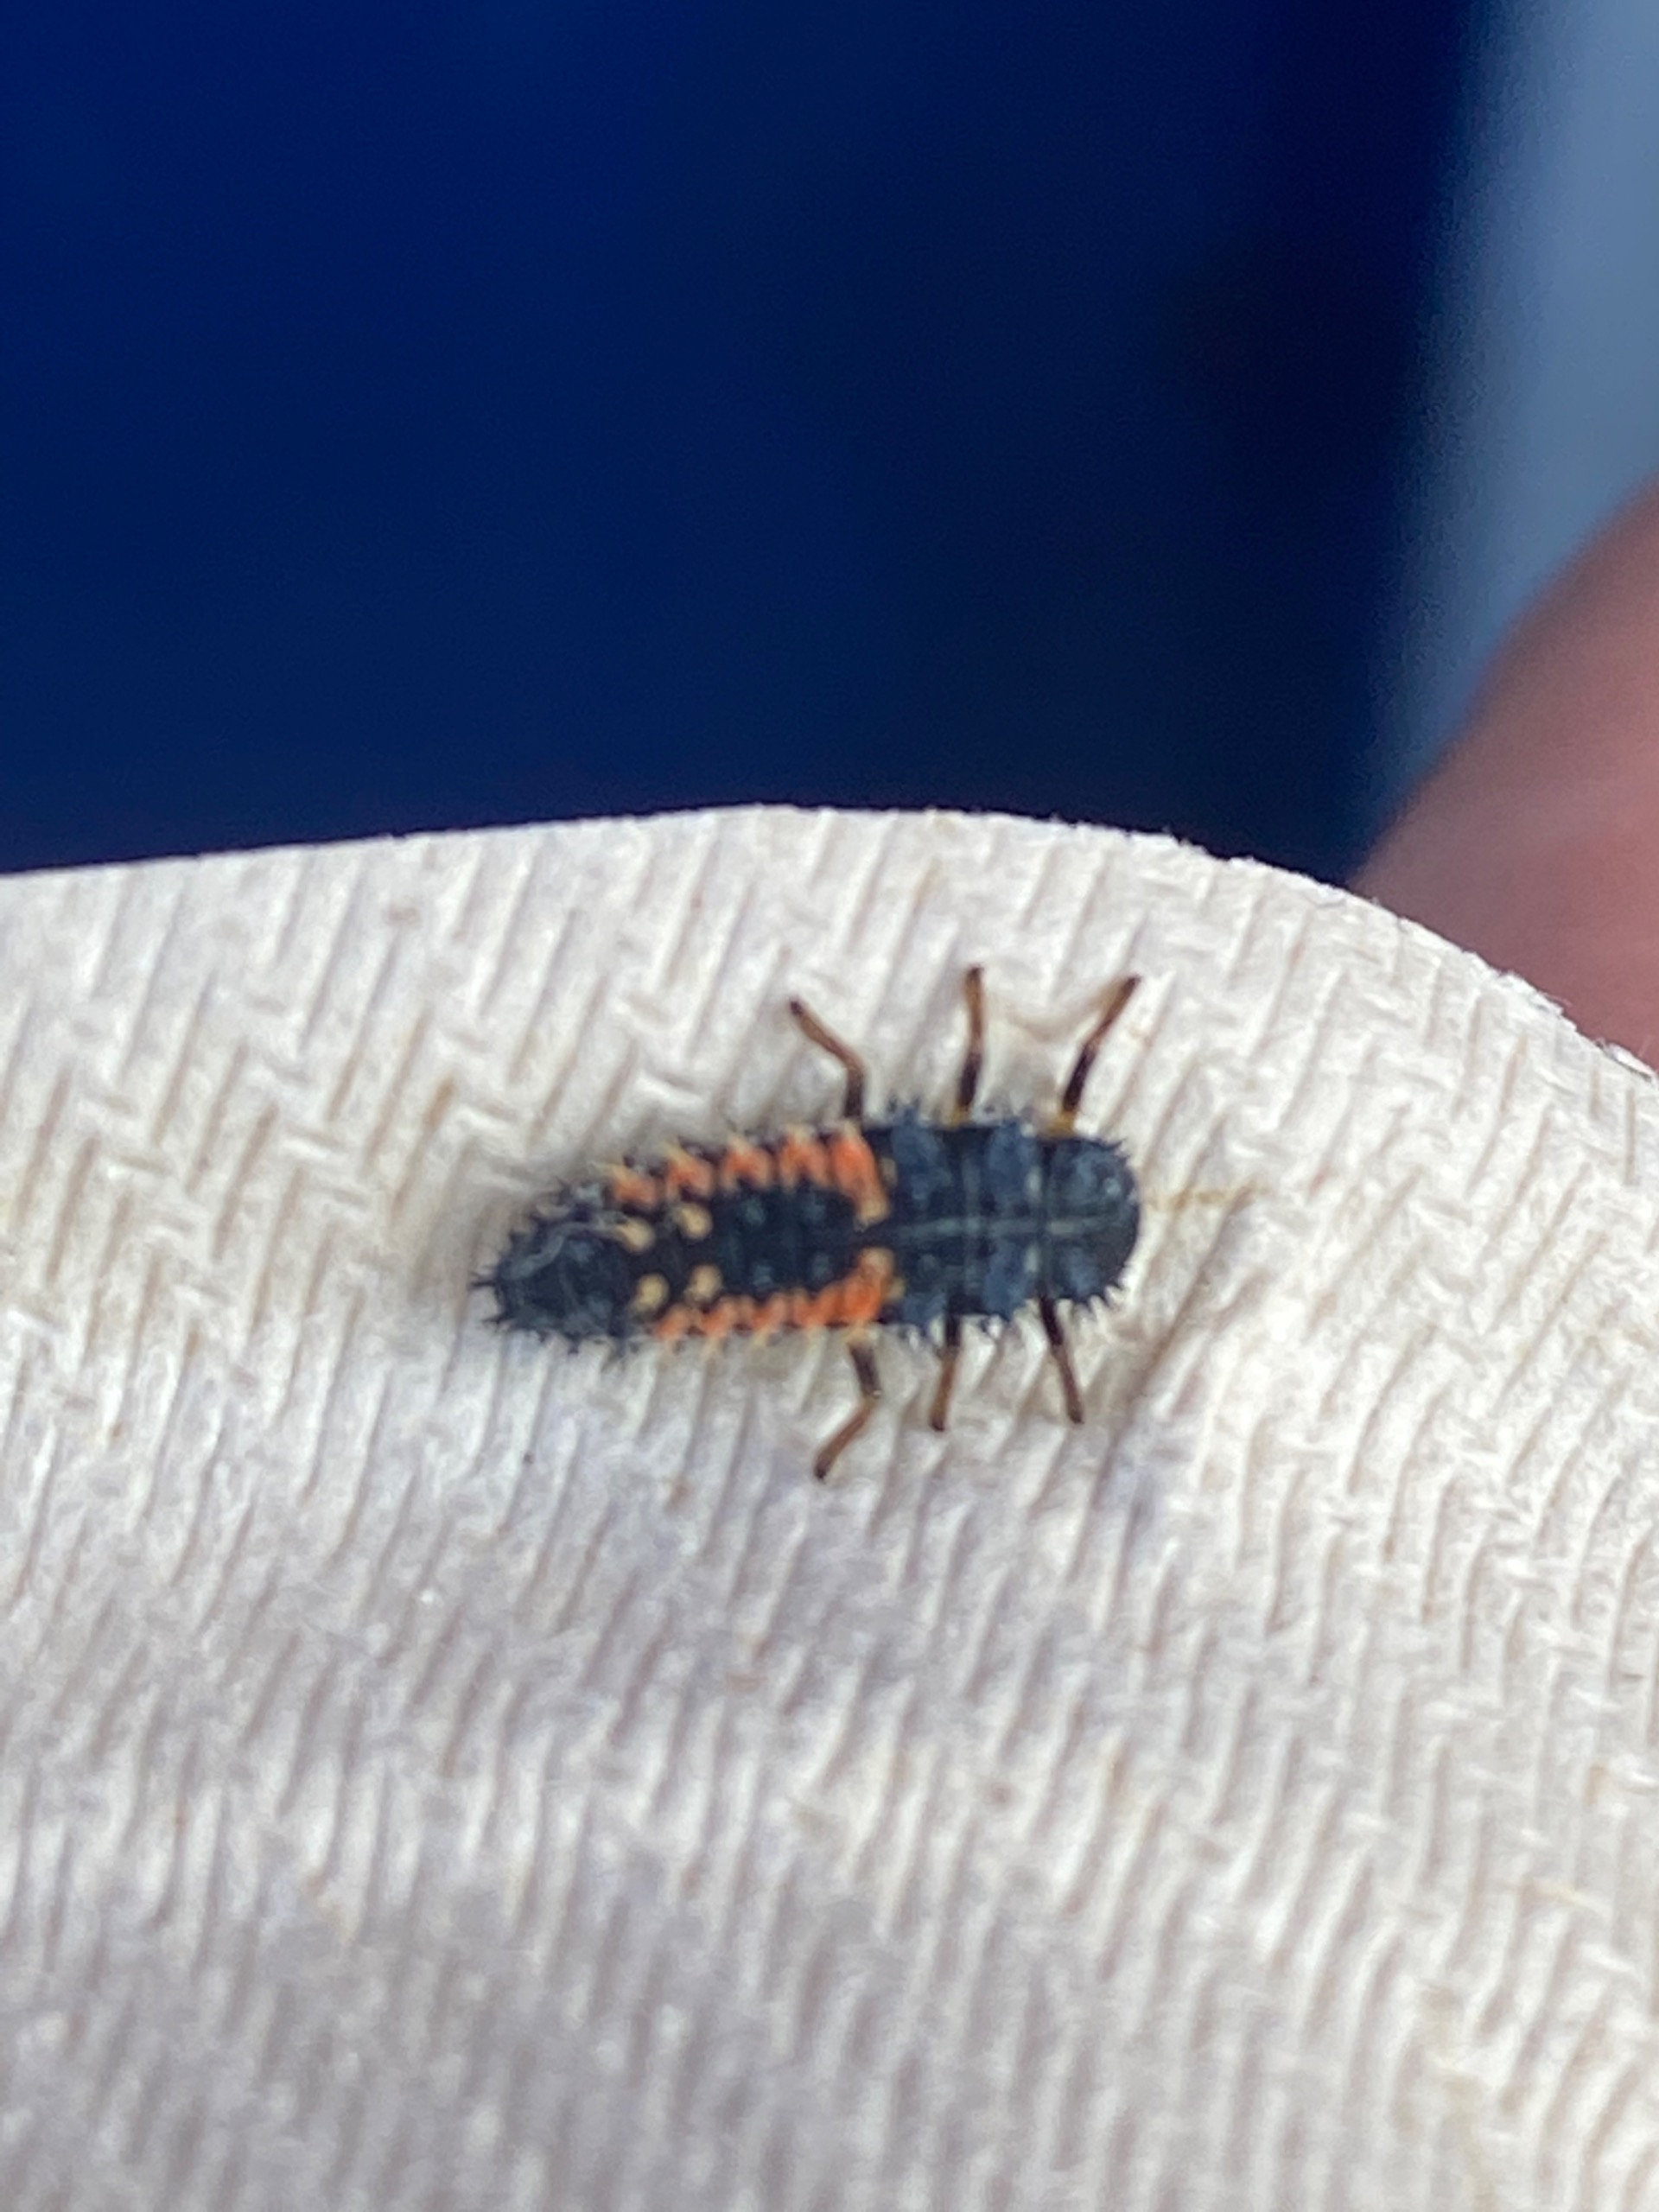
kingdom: Animalia
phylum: Arthropoda
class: Insecta
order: Coleoptera
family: Coccinellidae
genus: Harmonia
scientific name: Harmonia axyridis
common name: Harlekinmariehøne
